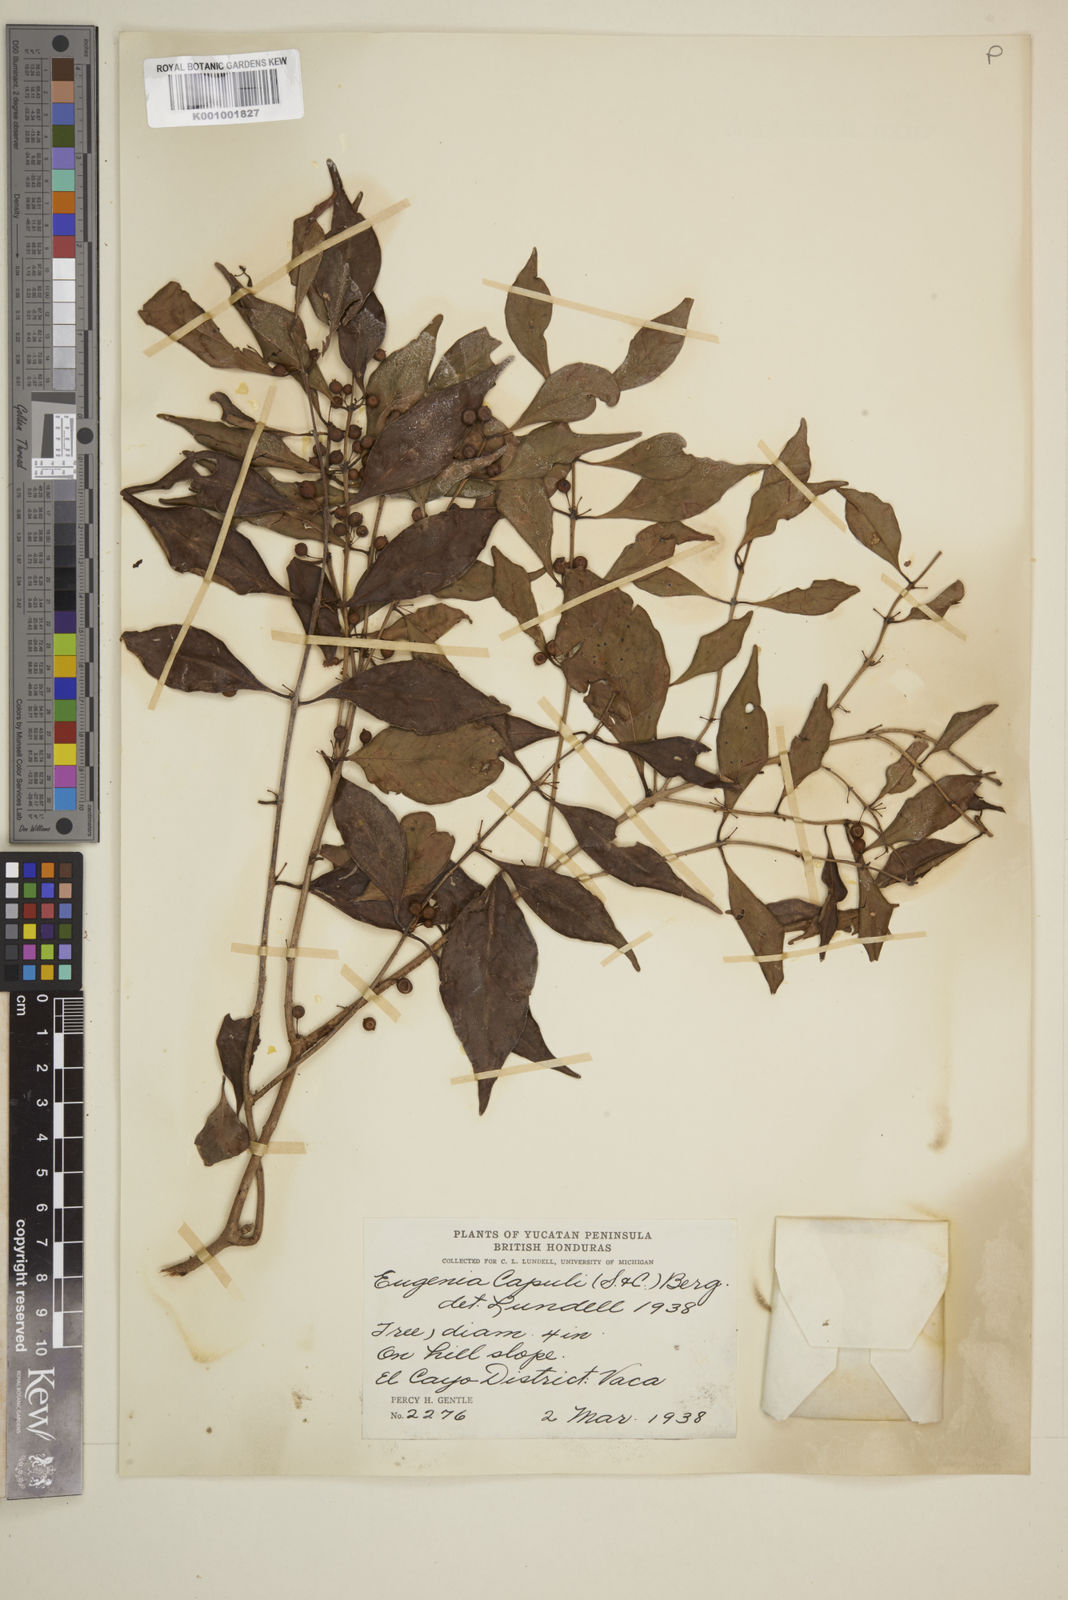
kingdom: Plantae
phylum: Tracheophyta
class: Magnoliopsida
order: Myrtales
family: Myrtaceae
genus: Eugenia
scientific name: Eugenia capuli
